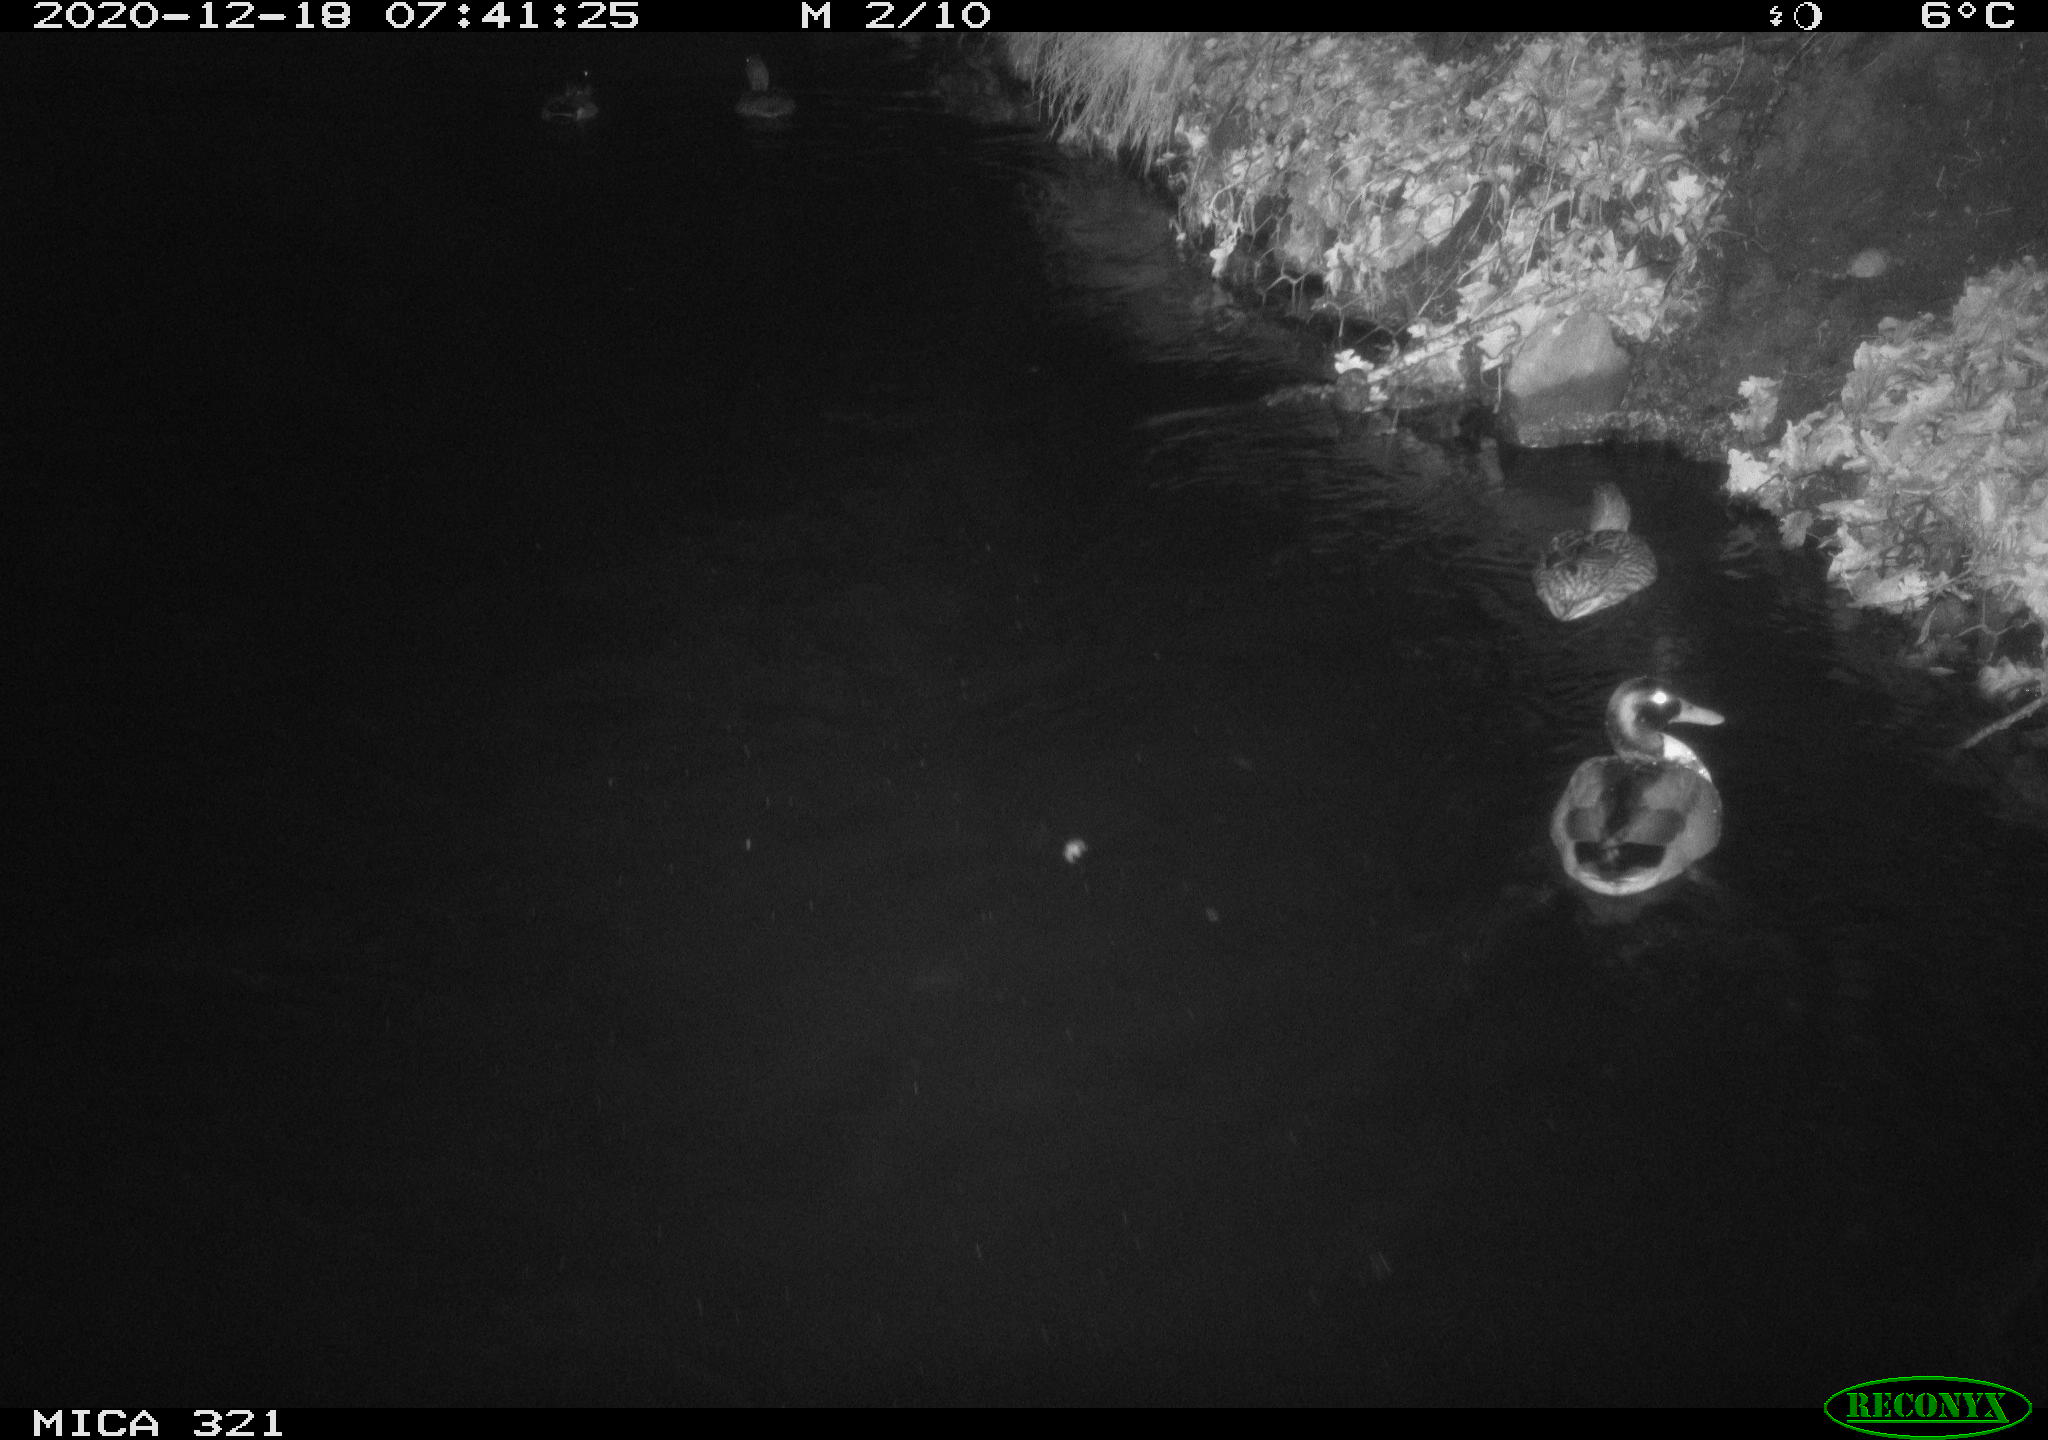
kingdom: Animalia
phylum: Chordata
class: Aves
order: Anseriformes
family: Anatidae
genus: Anas
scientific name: Anas platyrhynchos
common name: Mallard
